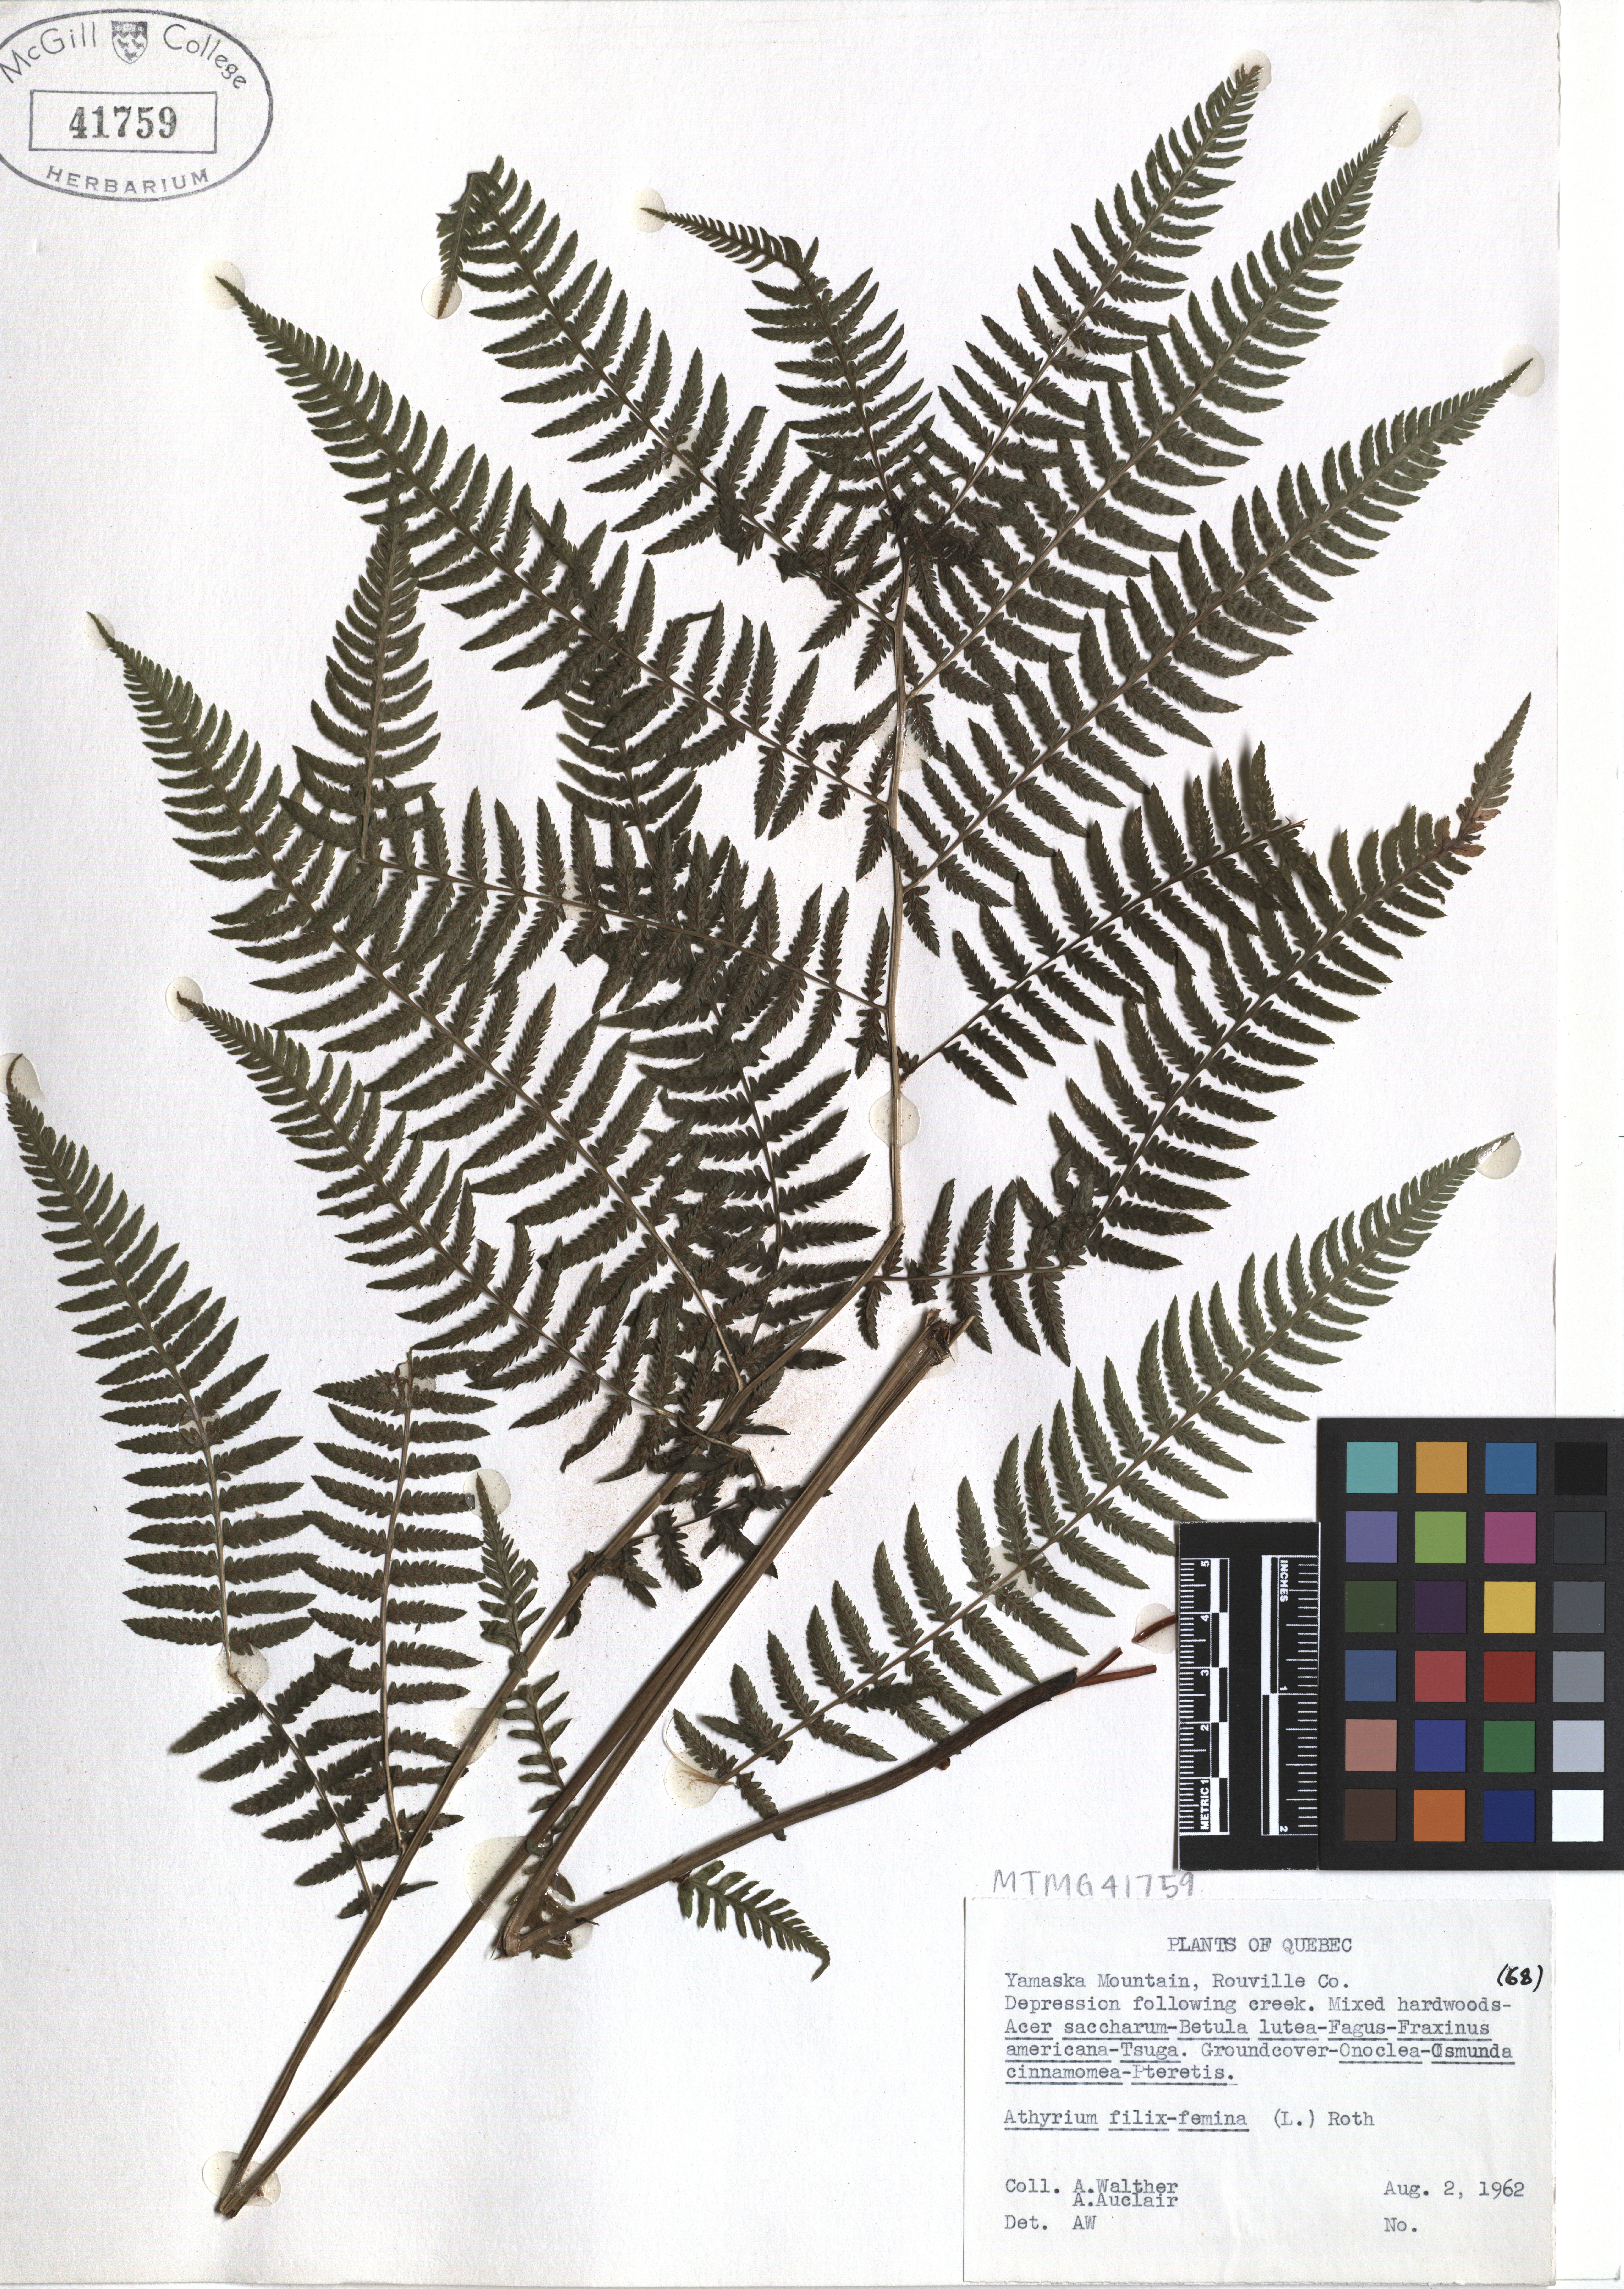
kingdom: Plantae
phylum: Tracheophyta
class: Polypodiopsida
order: Polypodiales
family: Athyriaceae
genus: Athyrium
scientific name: Athyrium filix-femina
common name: Lady fern
